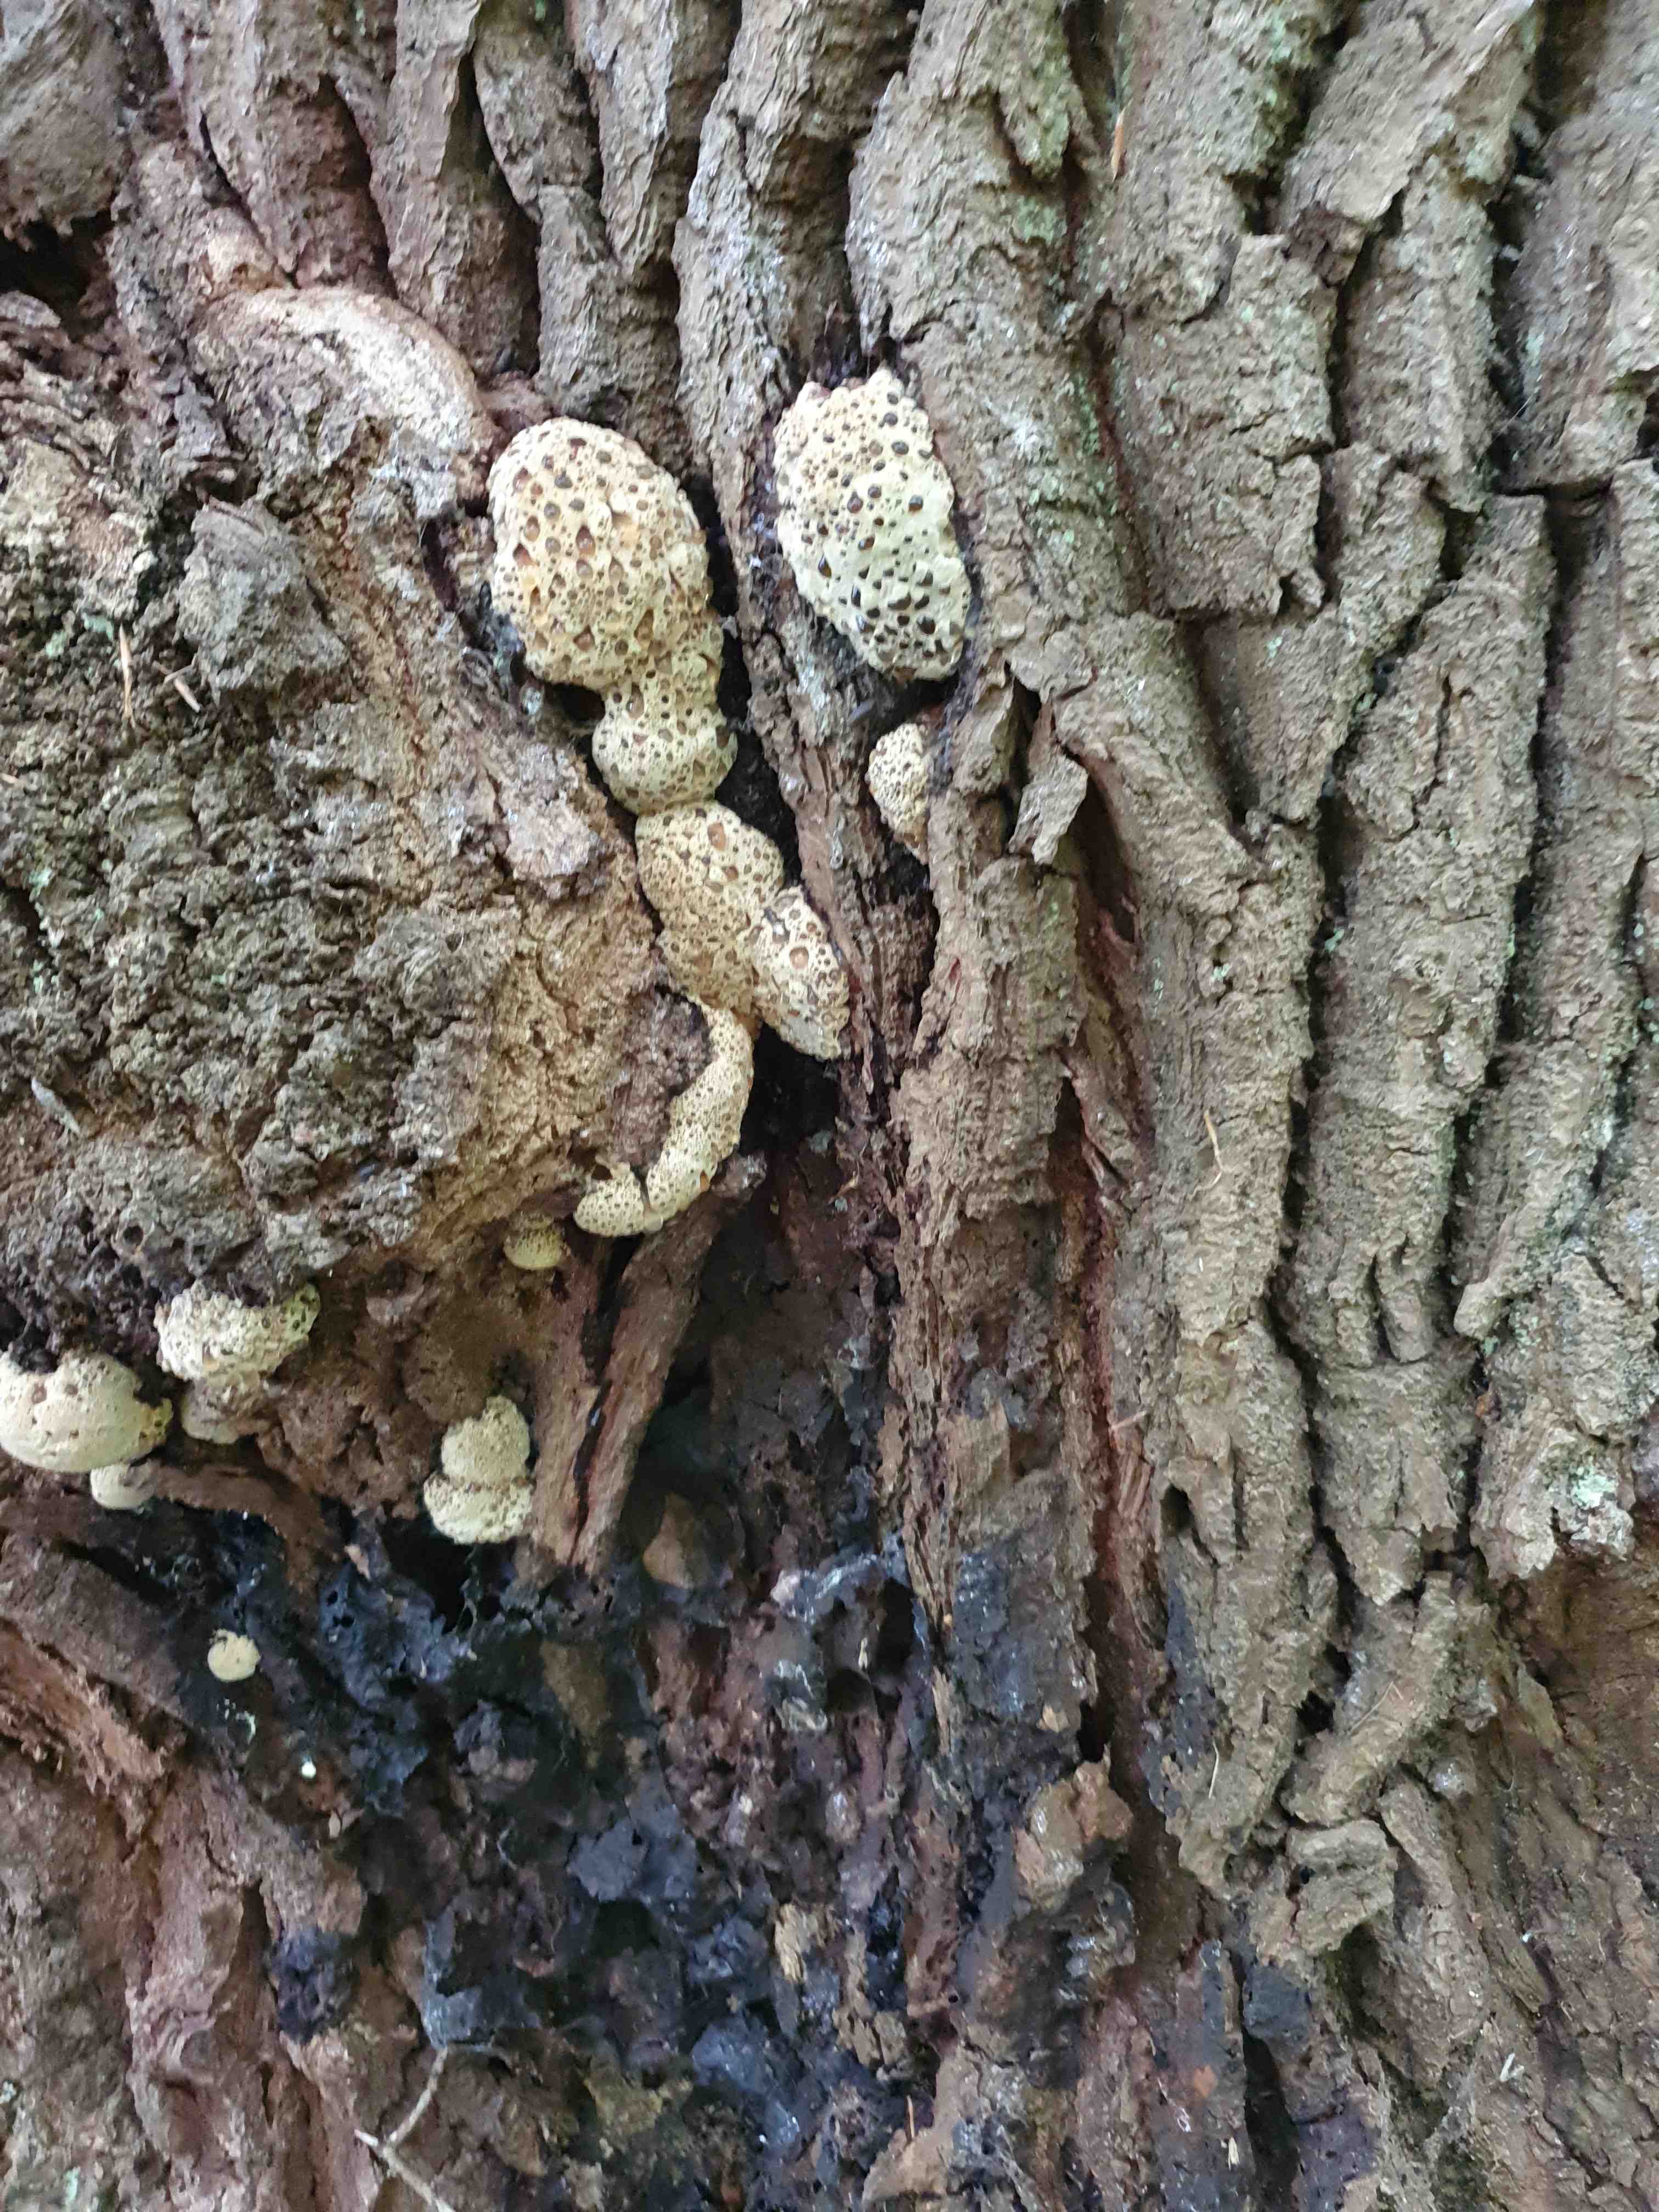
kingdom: Fungi
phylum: Basidiomycota
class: Agaricomycetes
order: Hymenochaetales
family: Hymenochaetaceae
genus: Pseudoinonotus
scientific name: Pseudoinonotus dryadeus
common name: ege-spejlporesvamp
